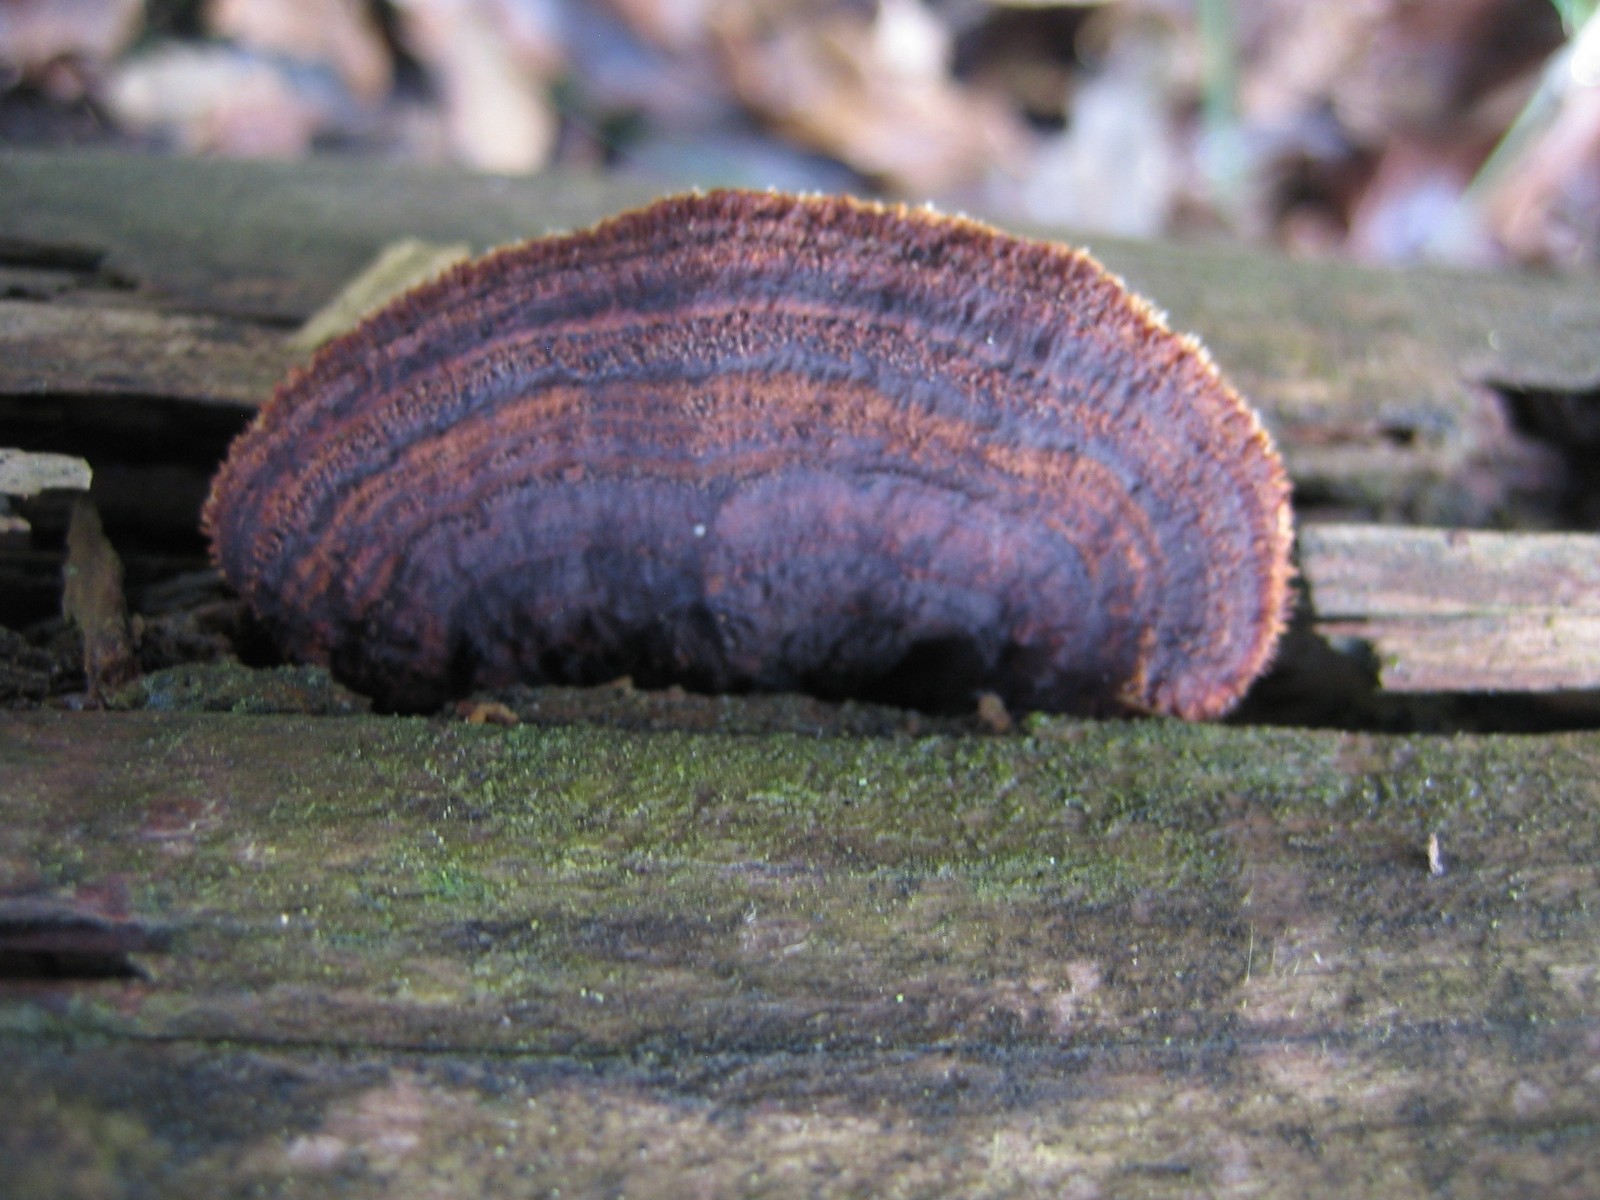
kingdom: Fungi
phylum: Basidiomycota
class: Agaricomycetes
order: Gloeophyllales
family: Gloeophyllaceae
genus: Gloeophyllum
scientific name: Gloeophyllum sepiarium
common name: fyrre-korkhat
